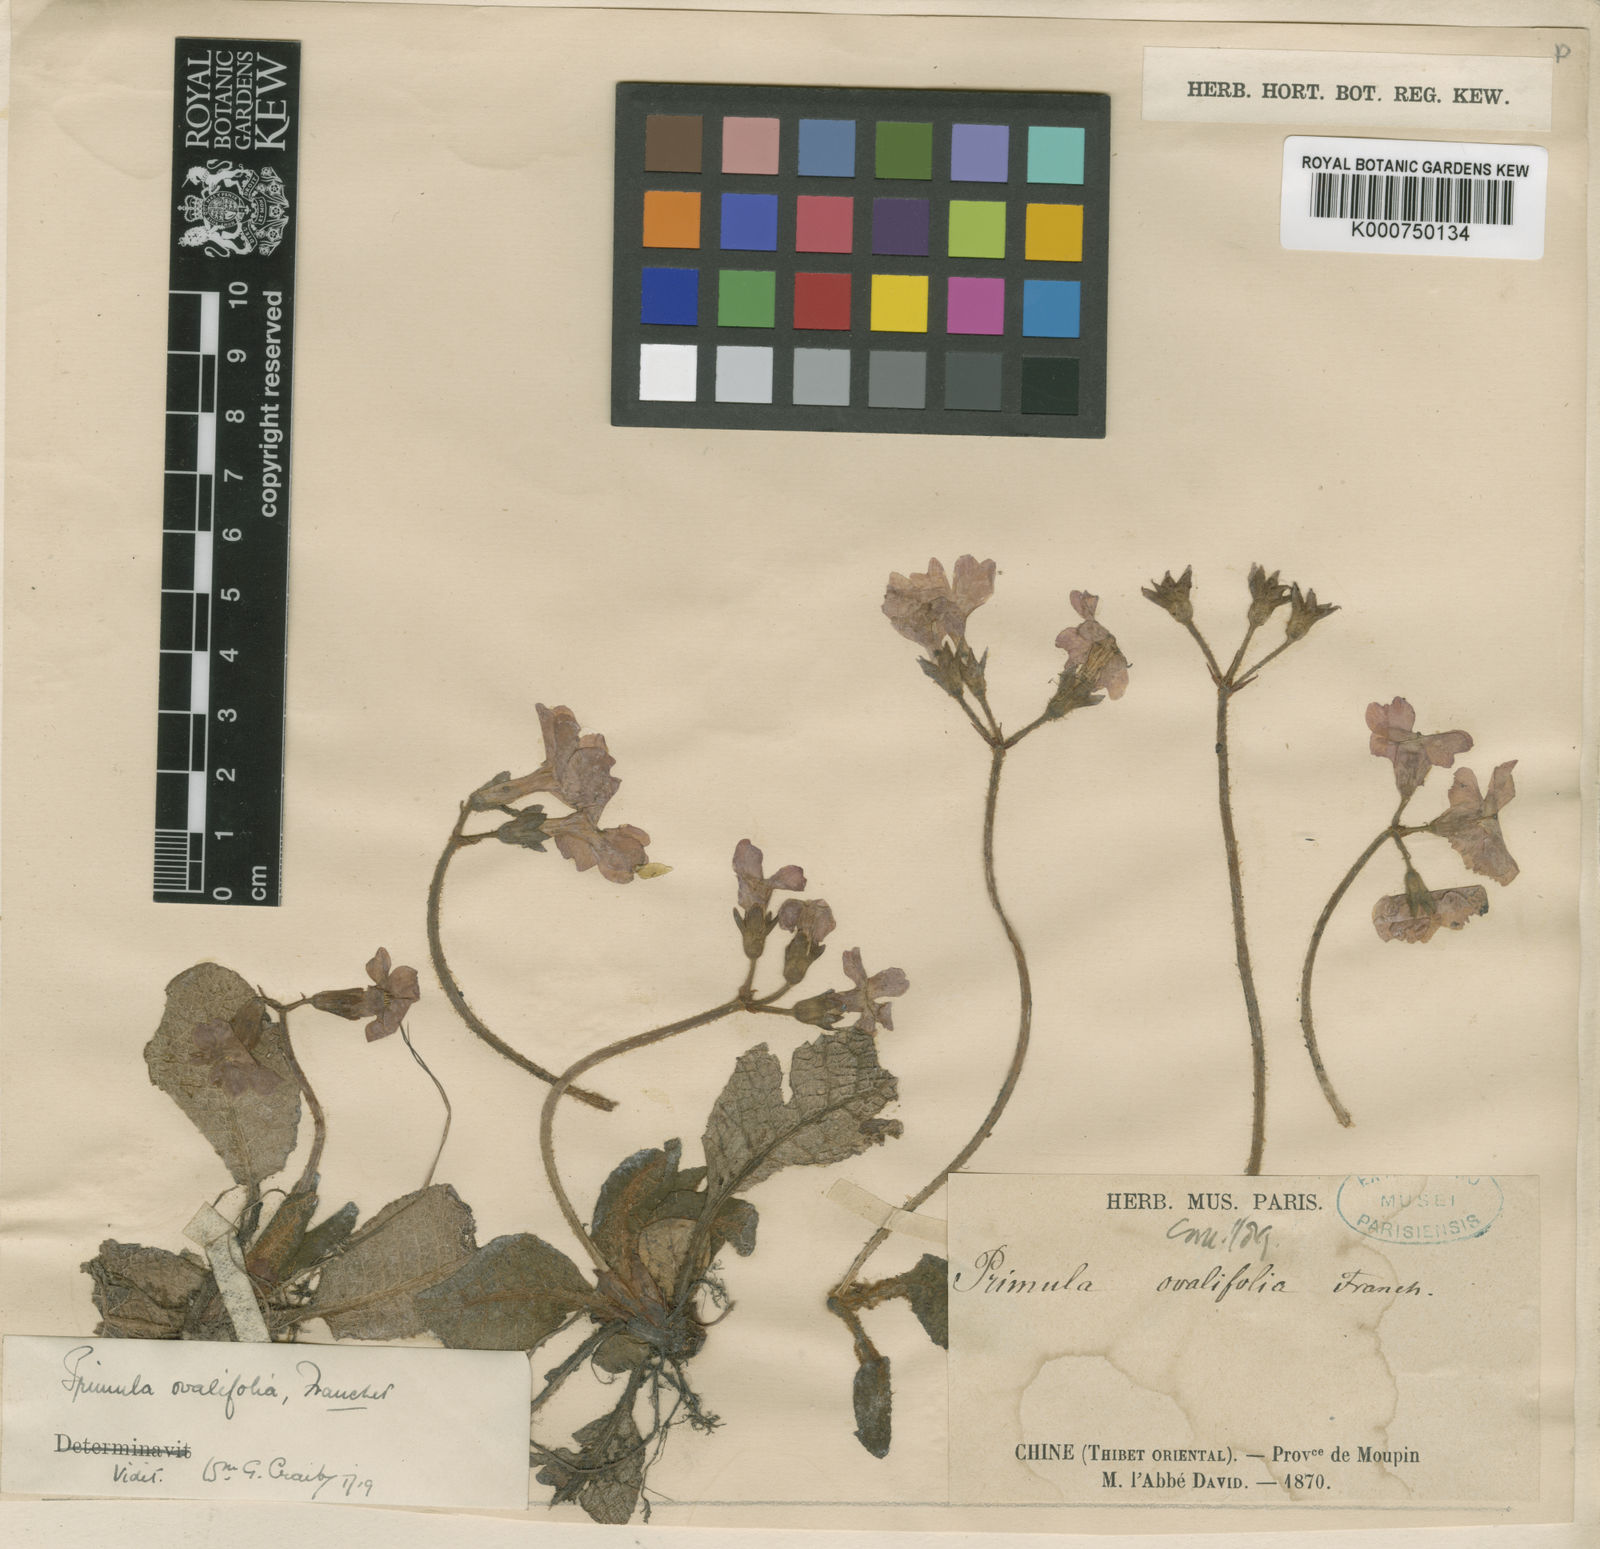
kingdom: Plantae
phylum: Tracheophyta
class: Magnoliopsida
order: Ericales
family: Primulaceae
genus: Primula
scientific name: Primula ovalifolia
